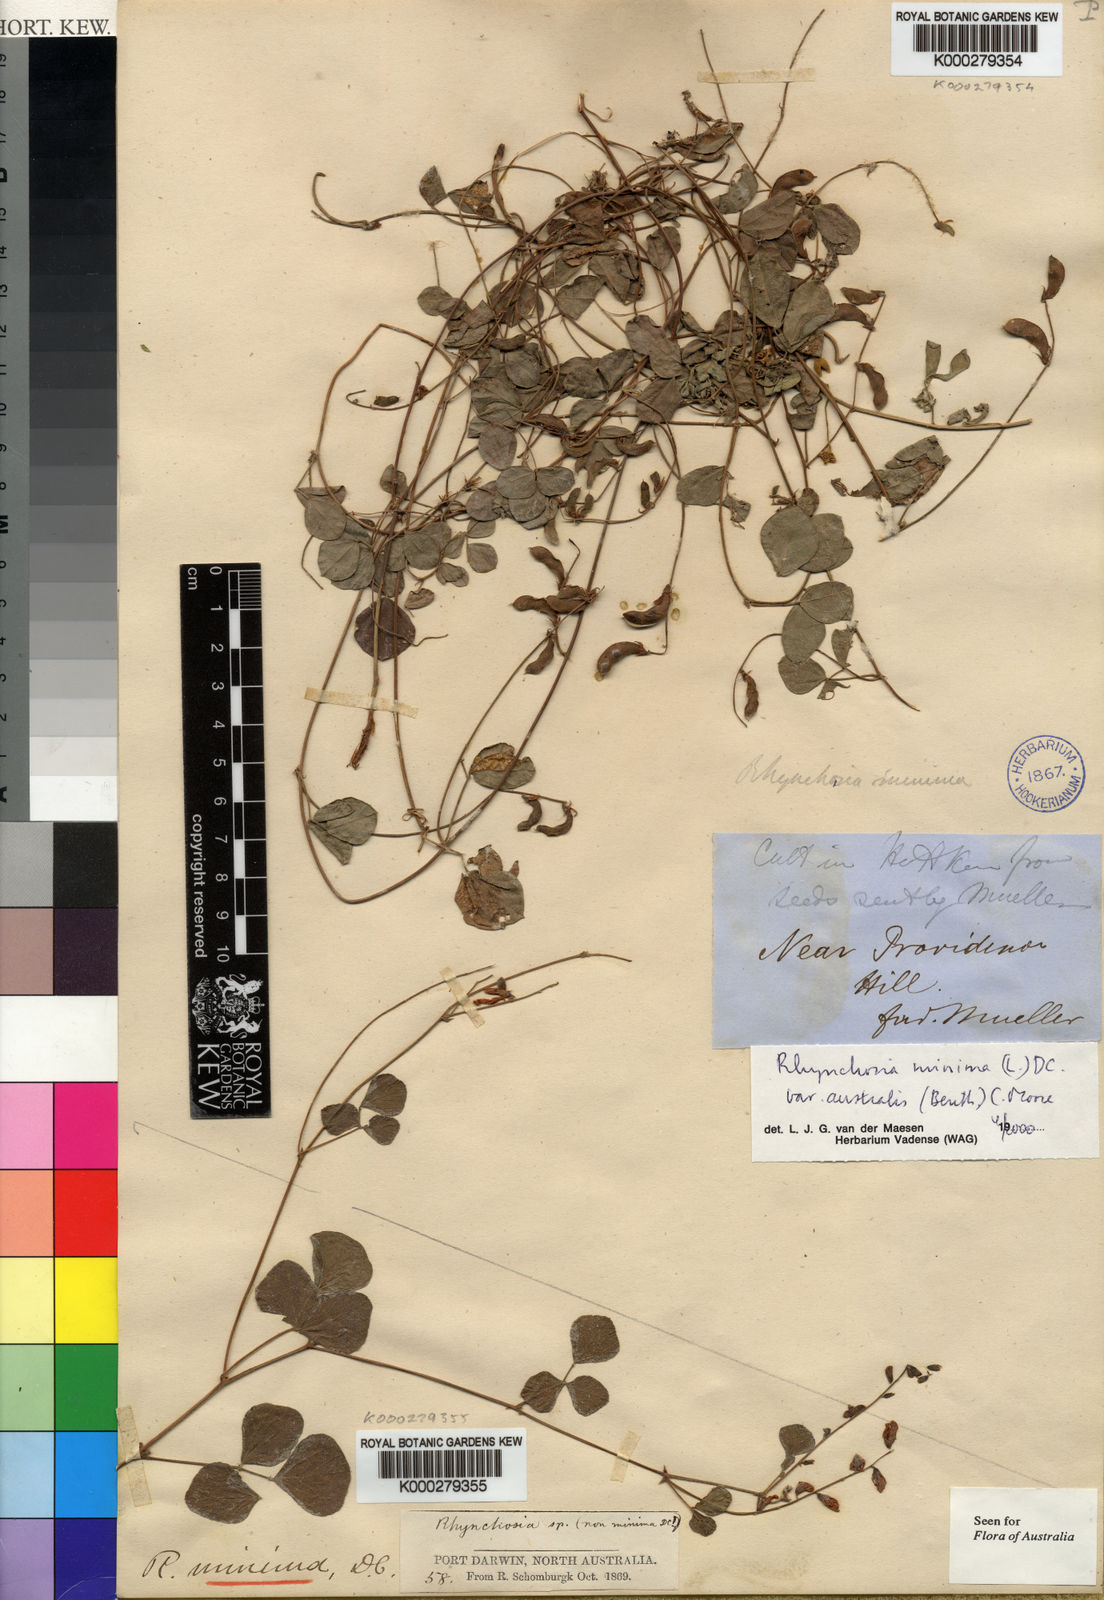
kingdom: Plantae
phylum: Tracheophyta
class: Magnoliopsida
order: Fabales
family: Fabaceae
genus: Rhynchosia
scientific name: Rhynchosia minima
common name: Least snoutbean
